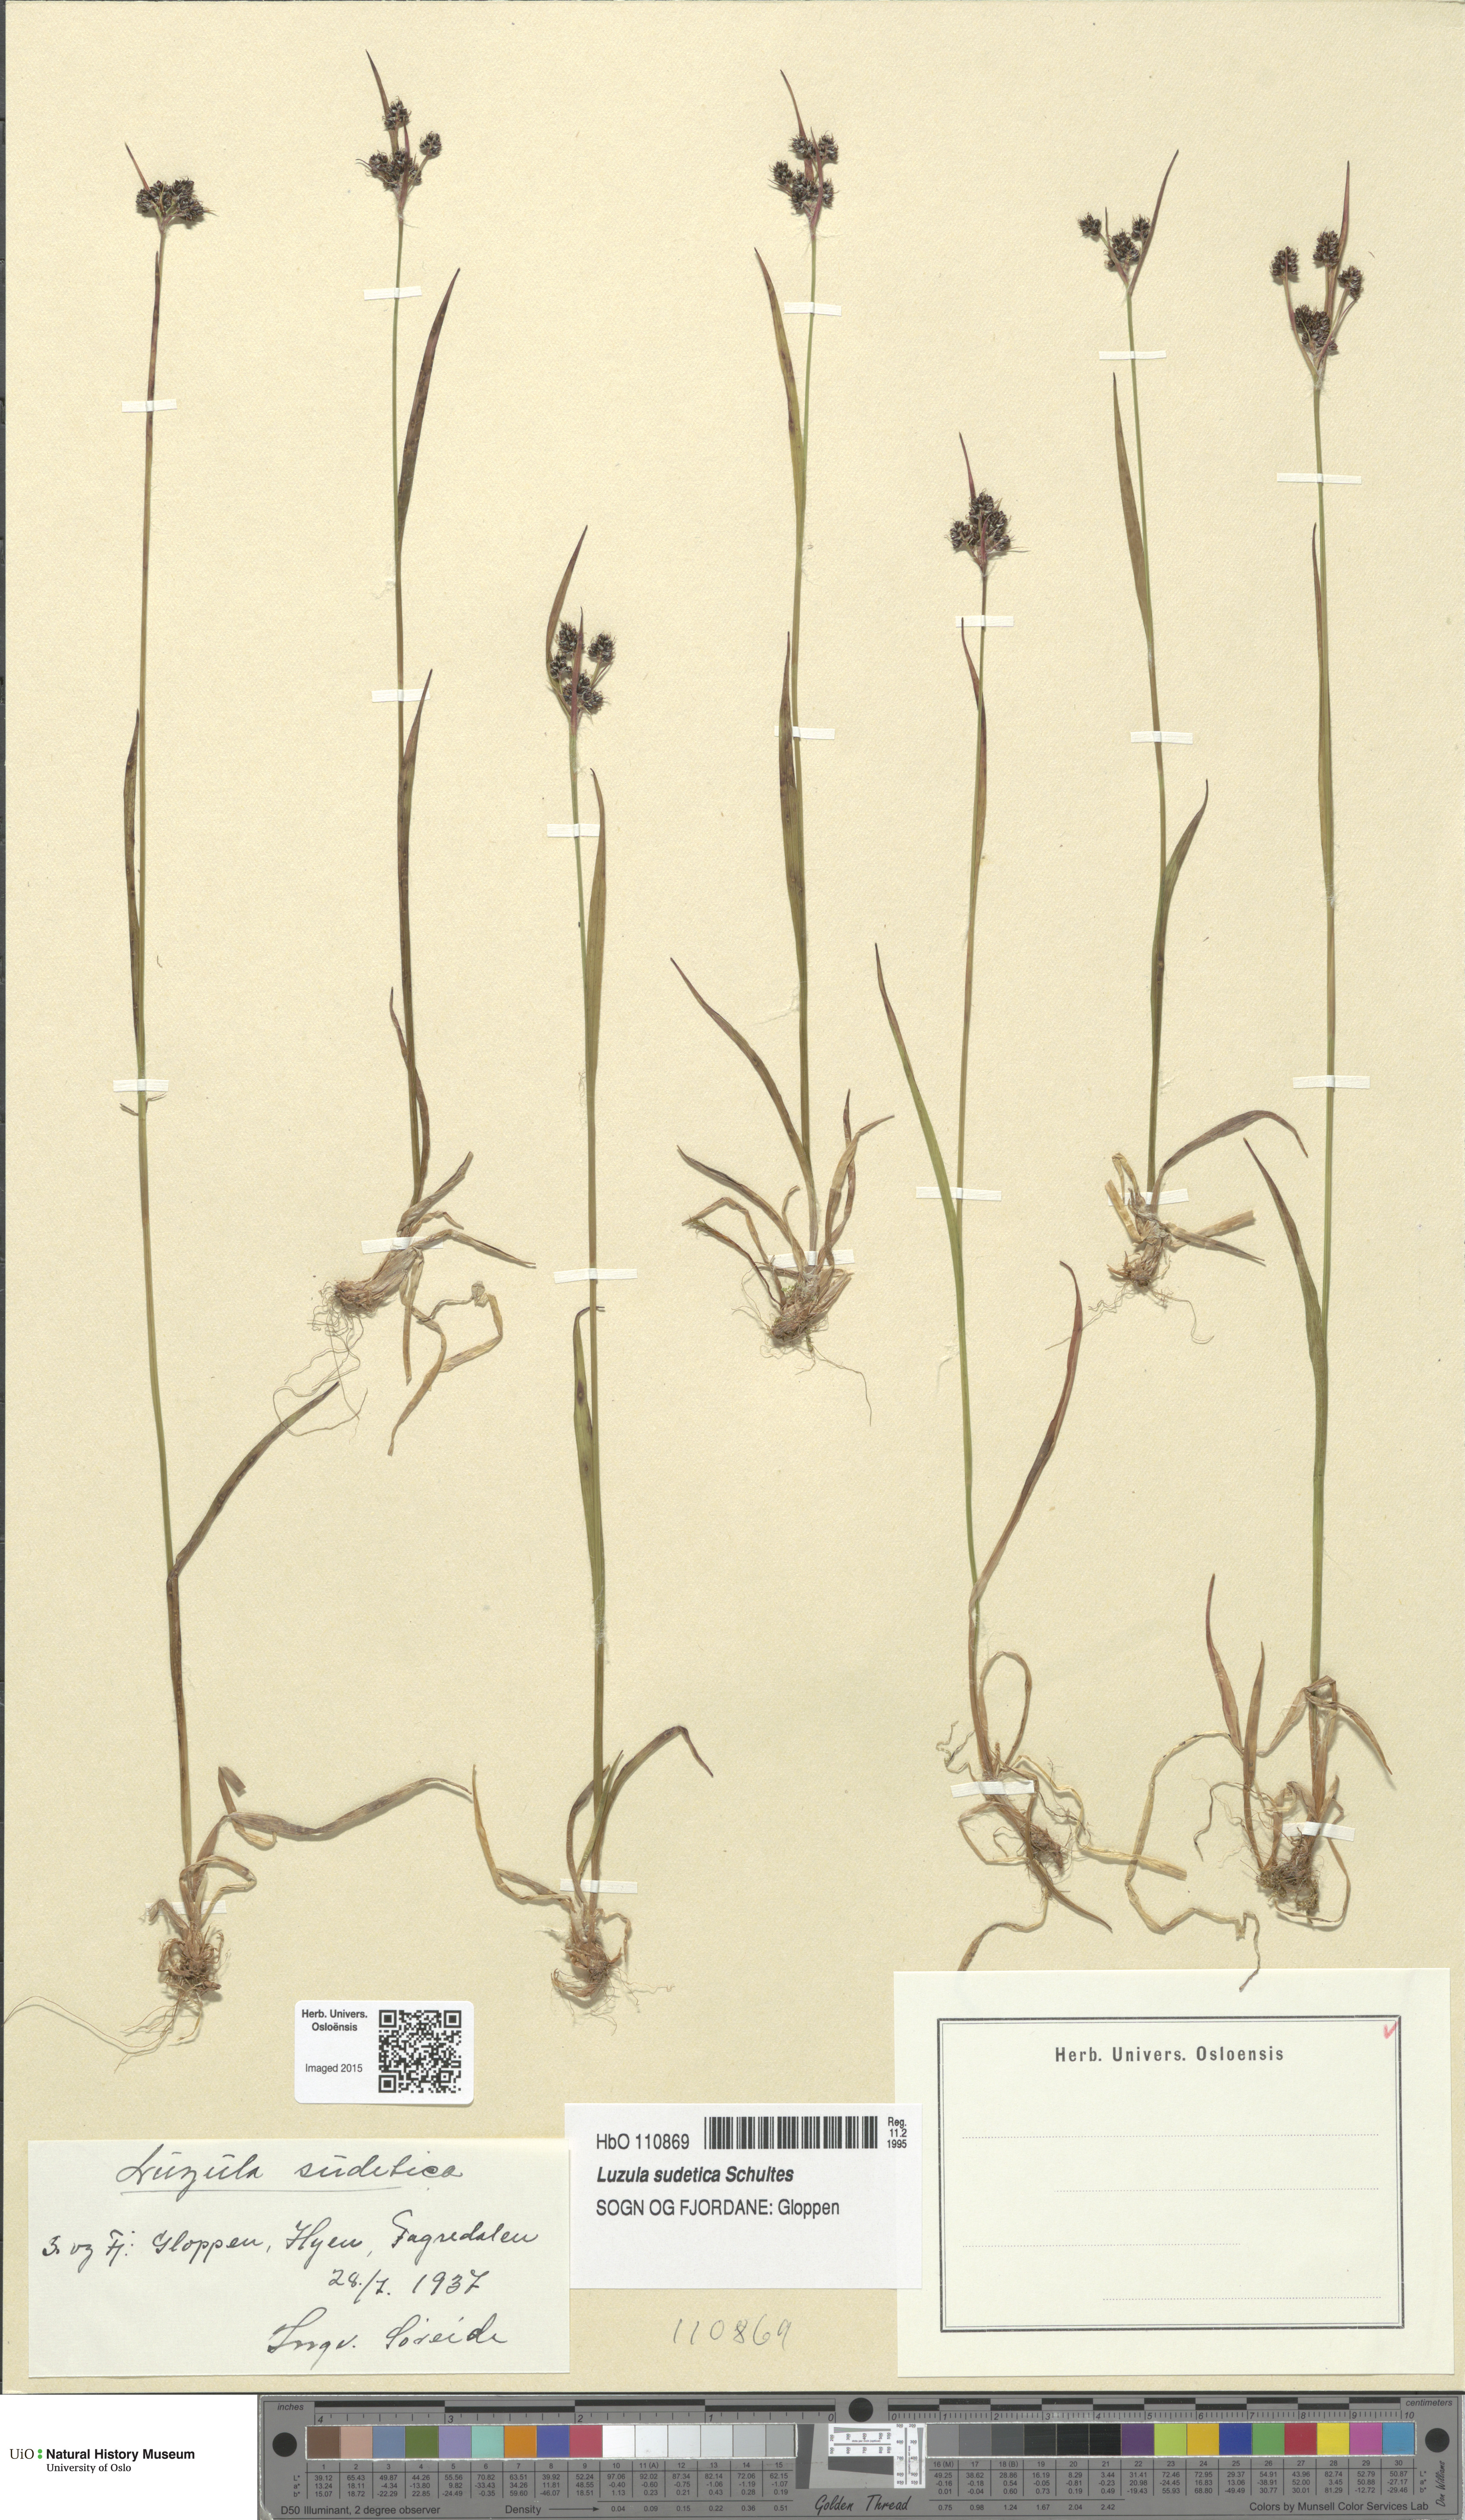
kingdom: Plantae
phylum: Tracheophyta
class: Liliopsida
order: Poales
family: Juncaceae
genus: Luzula
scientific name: Luzula sudetica
